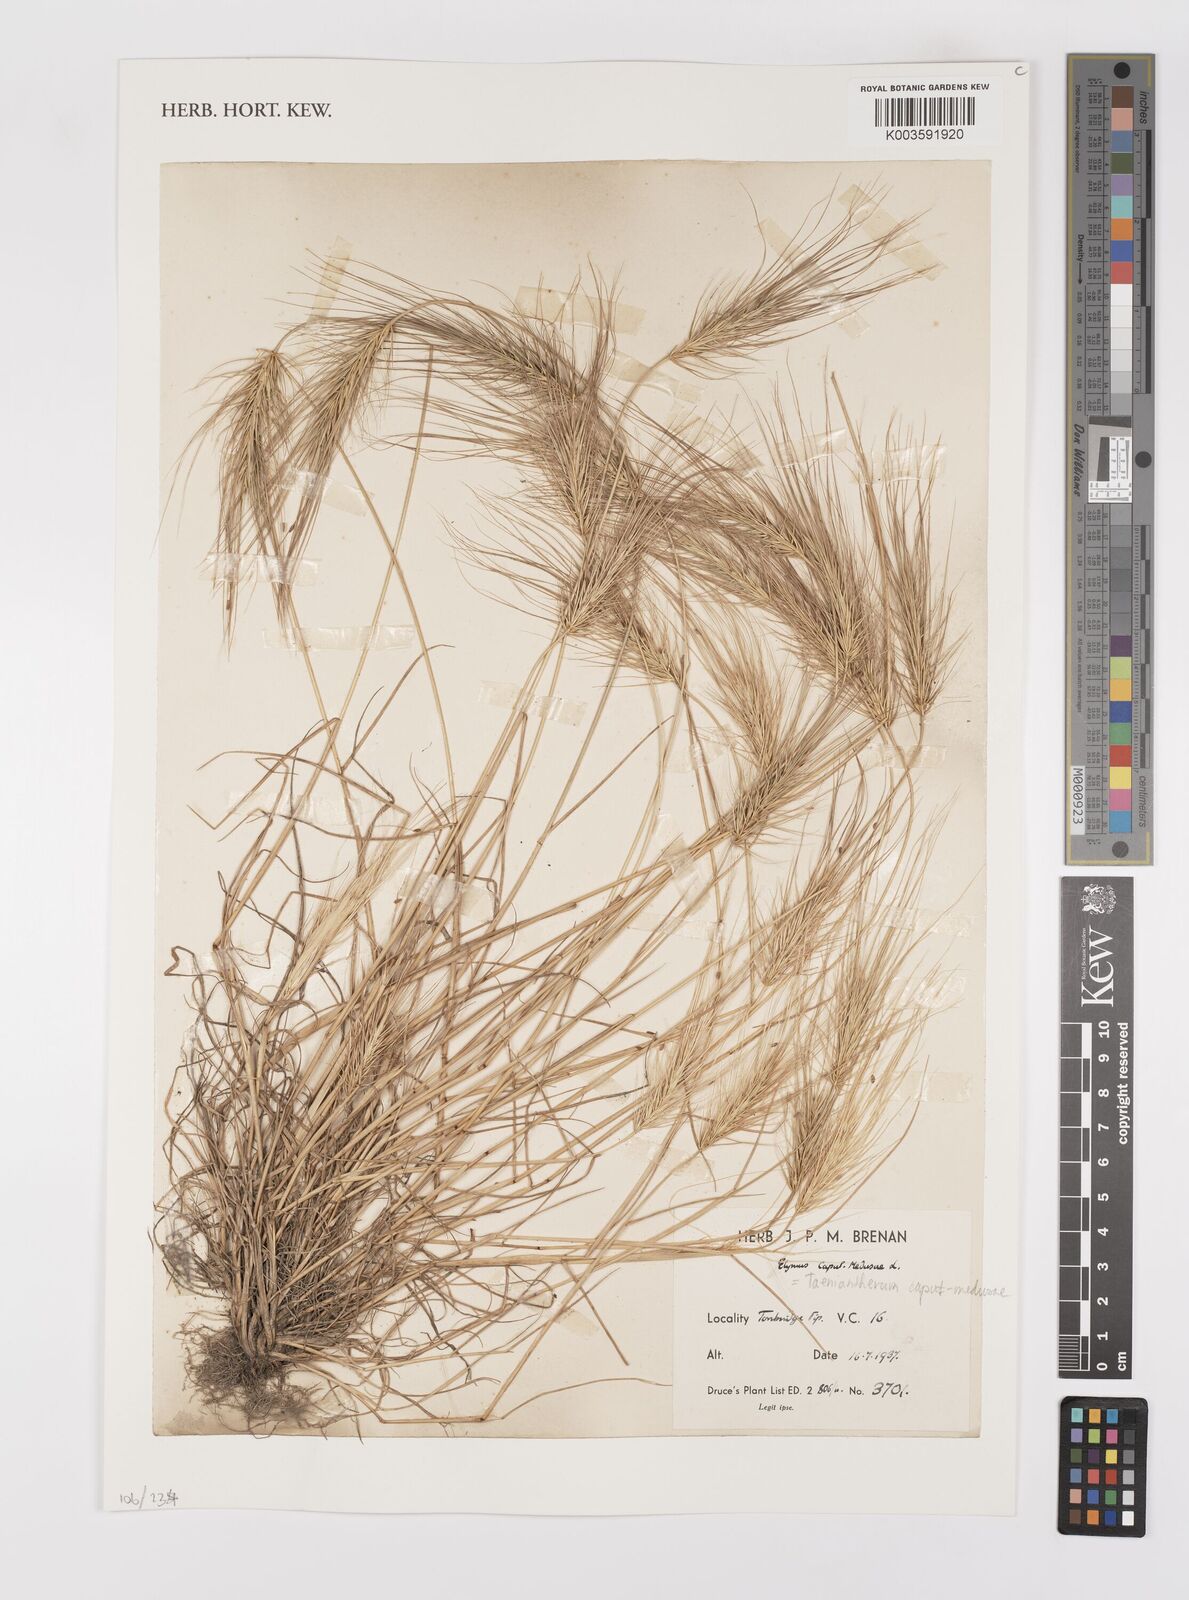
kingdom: Plantae
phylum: Tracheophyta
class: Liliopsida
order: Poales
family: Poaceae
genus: Taeniatherum
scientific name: Taeniatherum caput-medusae
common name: Medusahead
